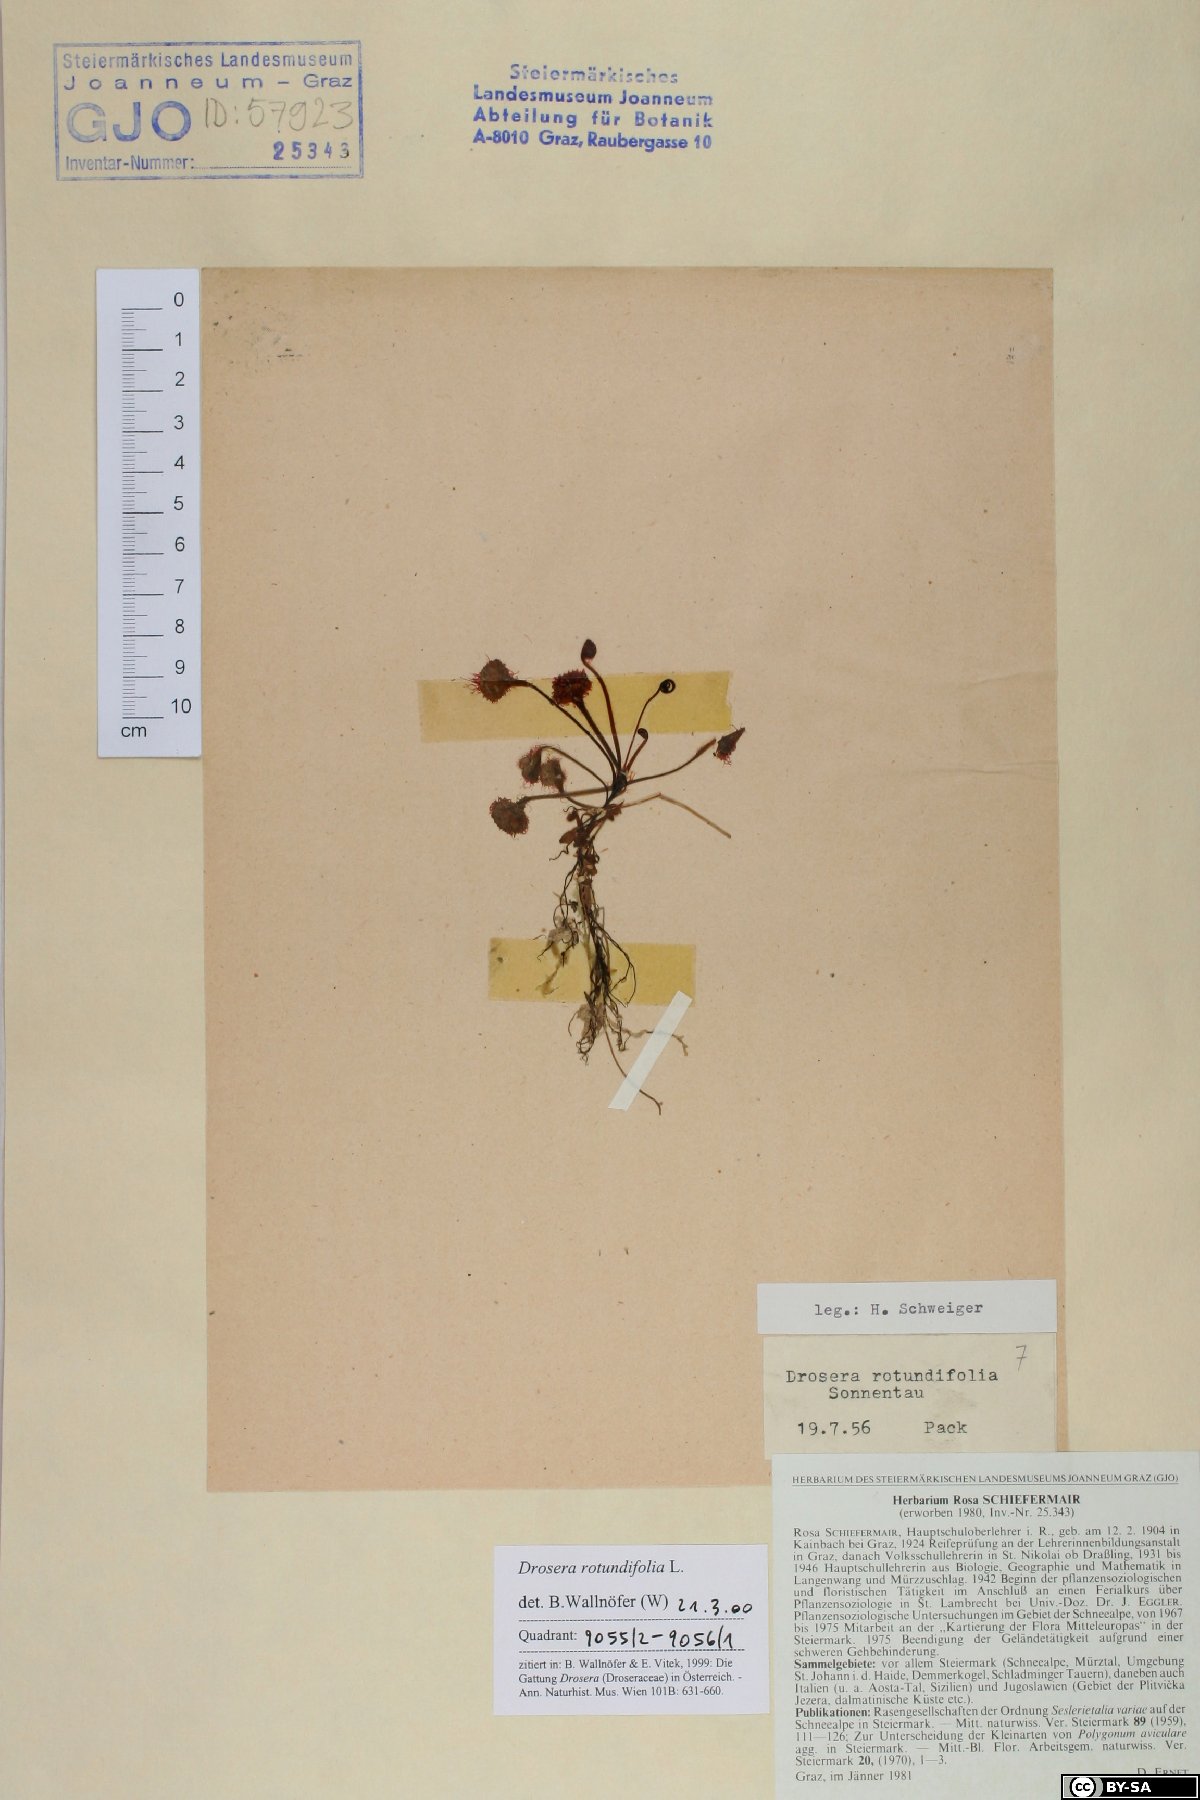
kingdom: Plantae
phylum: Tracheophyta
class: Magnoliopsida
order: Caryophyllales
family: Droseraceae
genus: Drosera
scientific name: Drosera rotundifolia
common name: Round-leaved sundew
